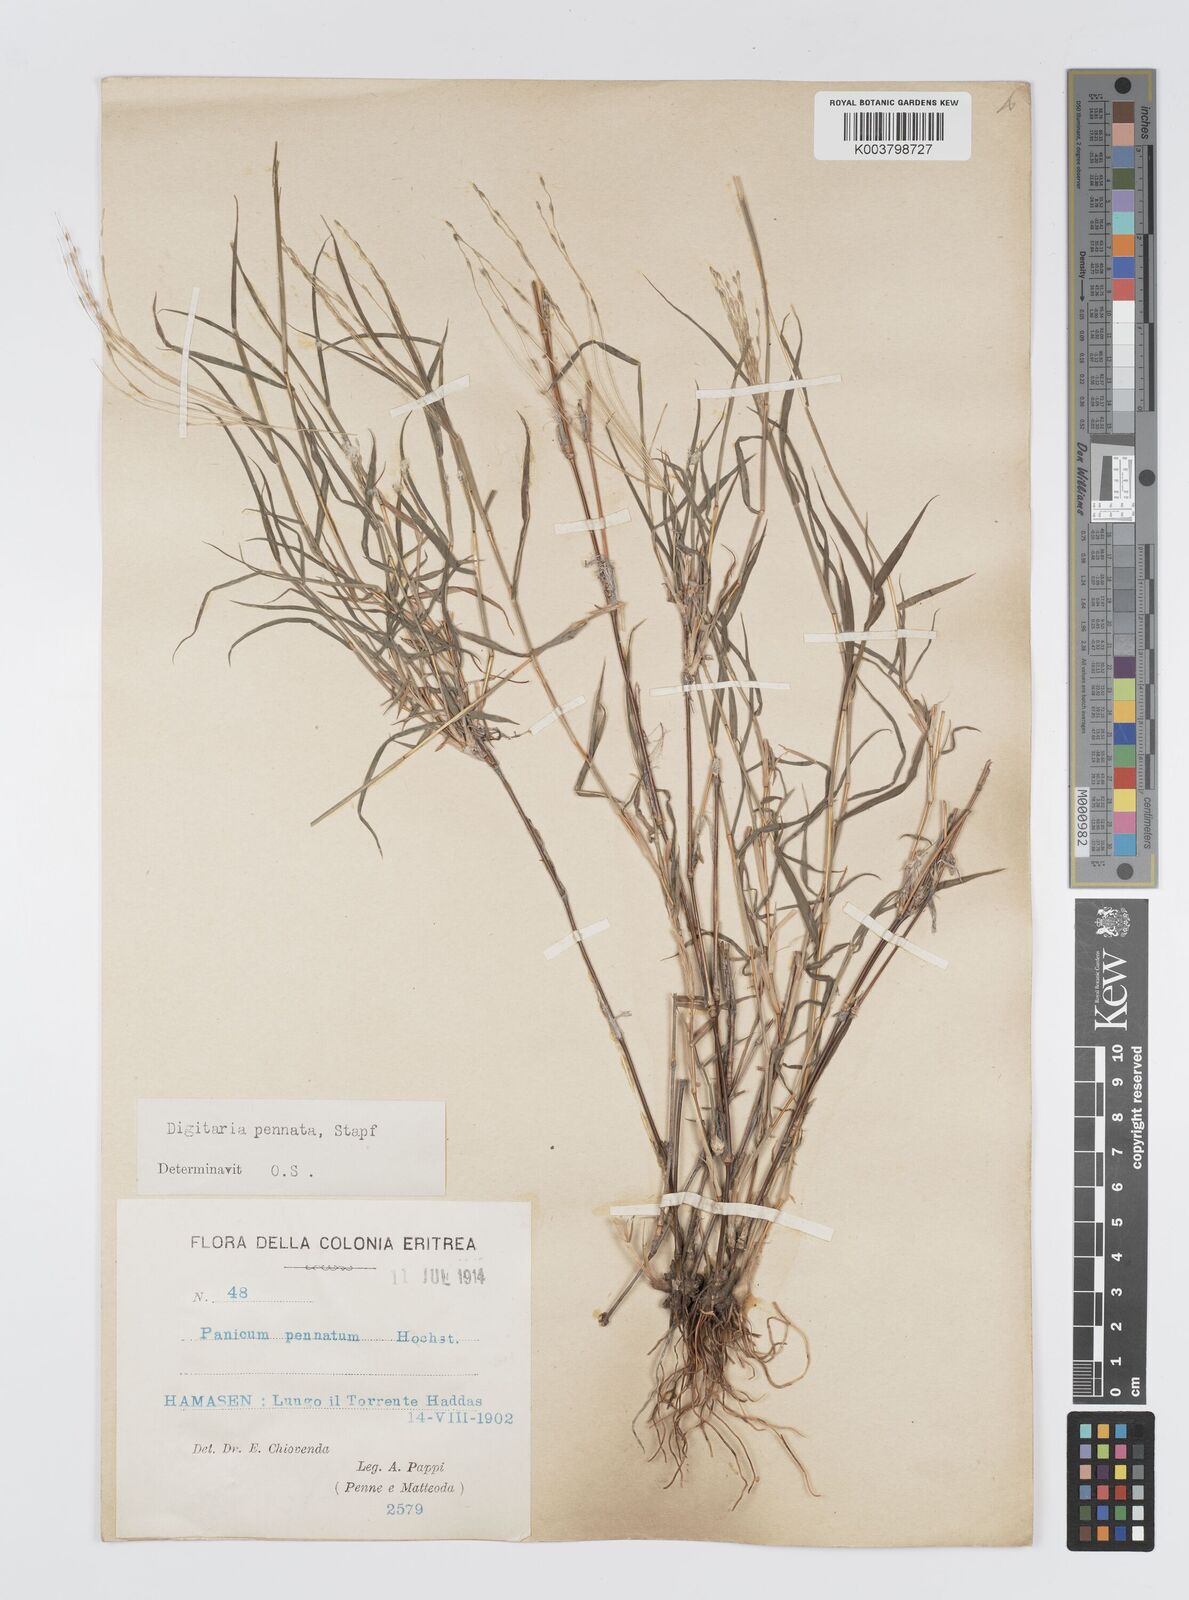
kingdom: Plantae
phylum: Tracheophyta
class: Liliopsida
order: Poales
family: Poaceae
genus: Digitaria
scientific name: Digitaria pennata
